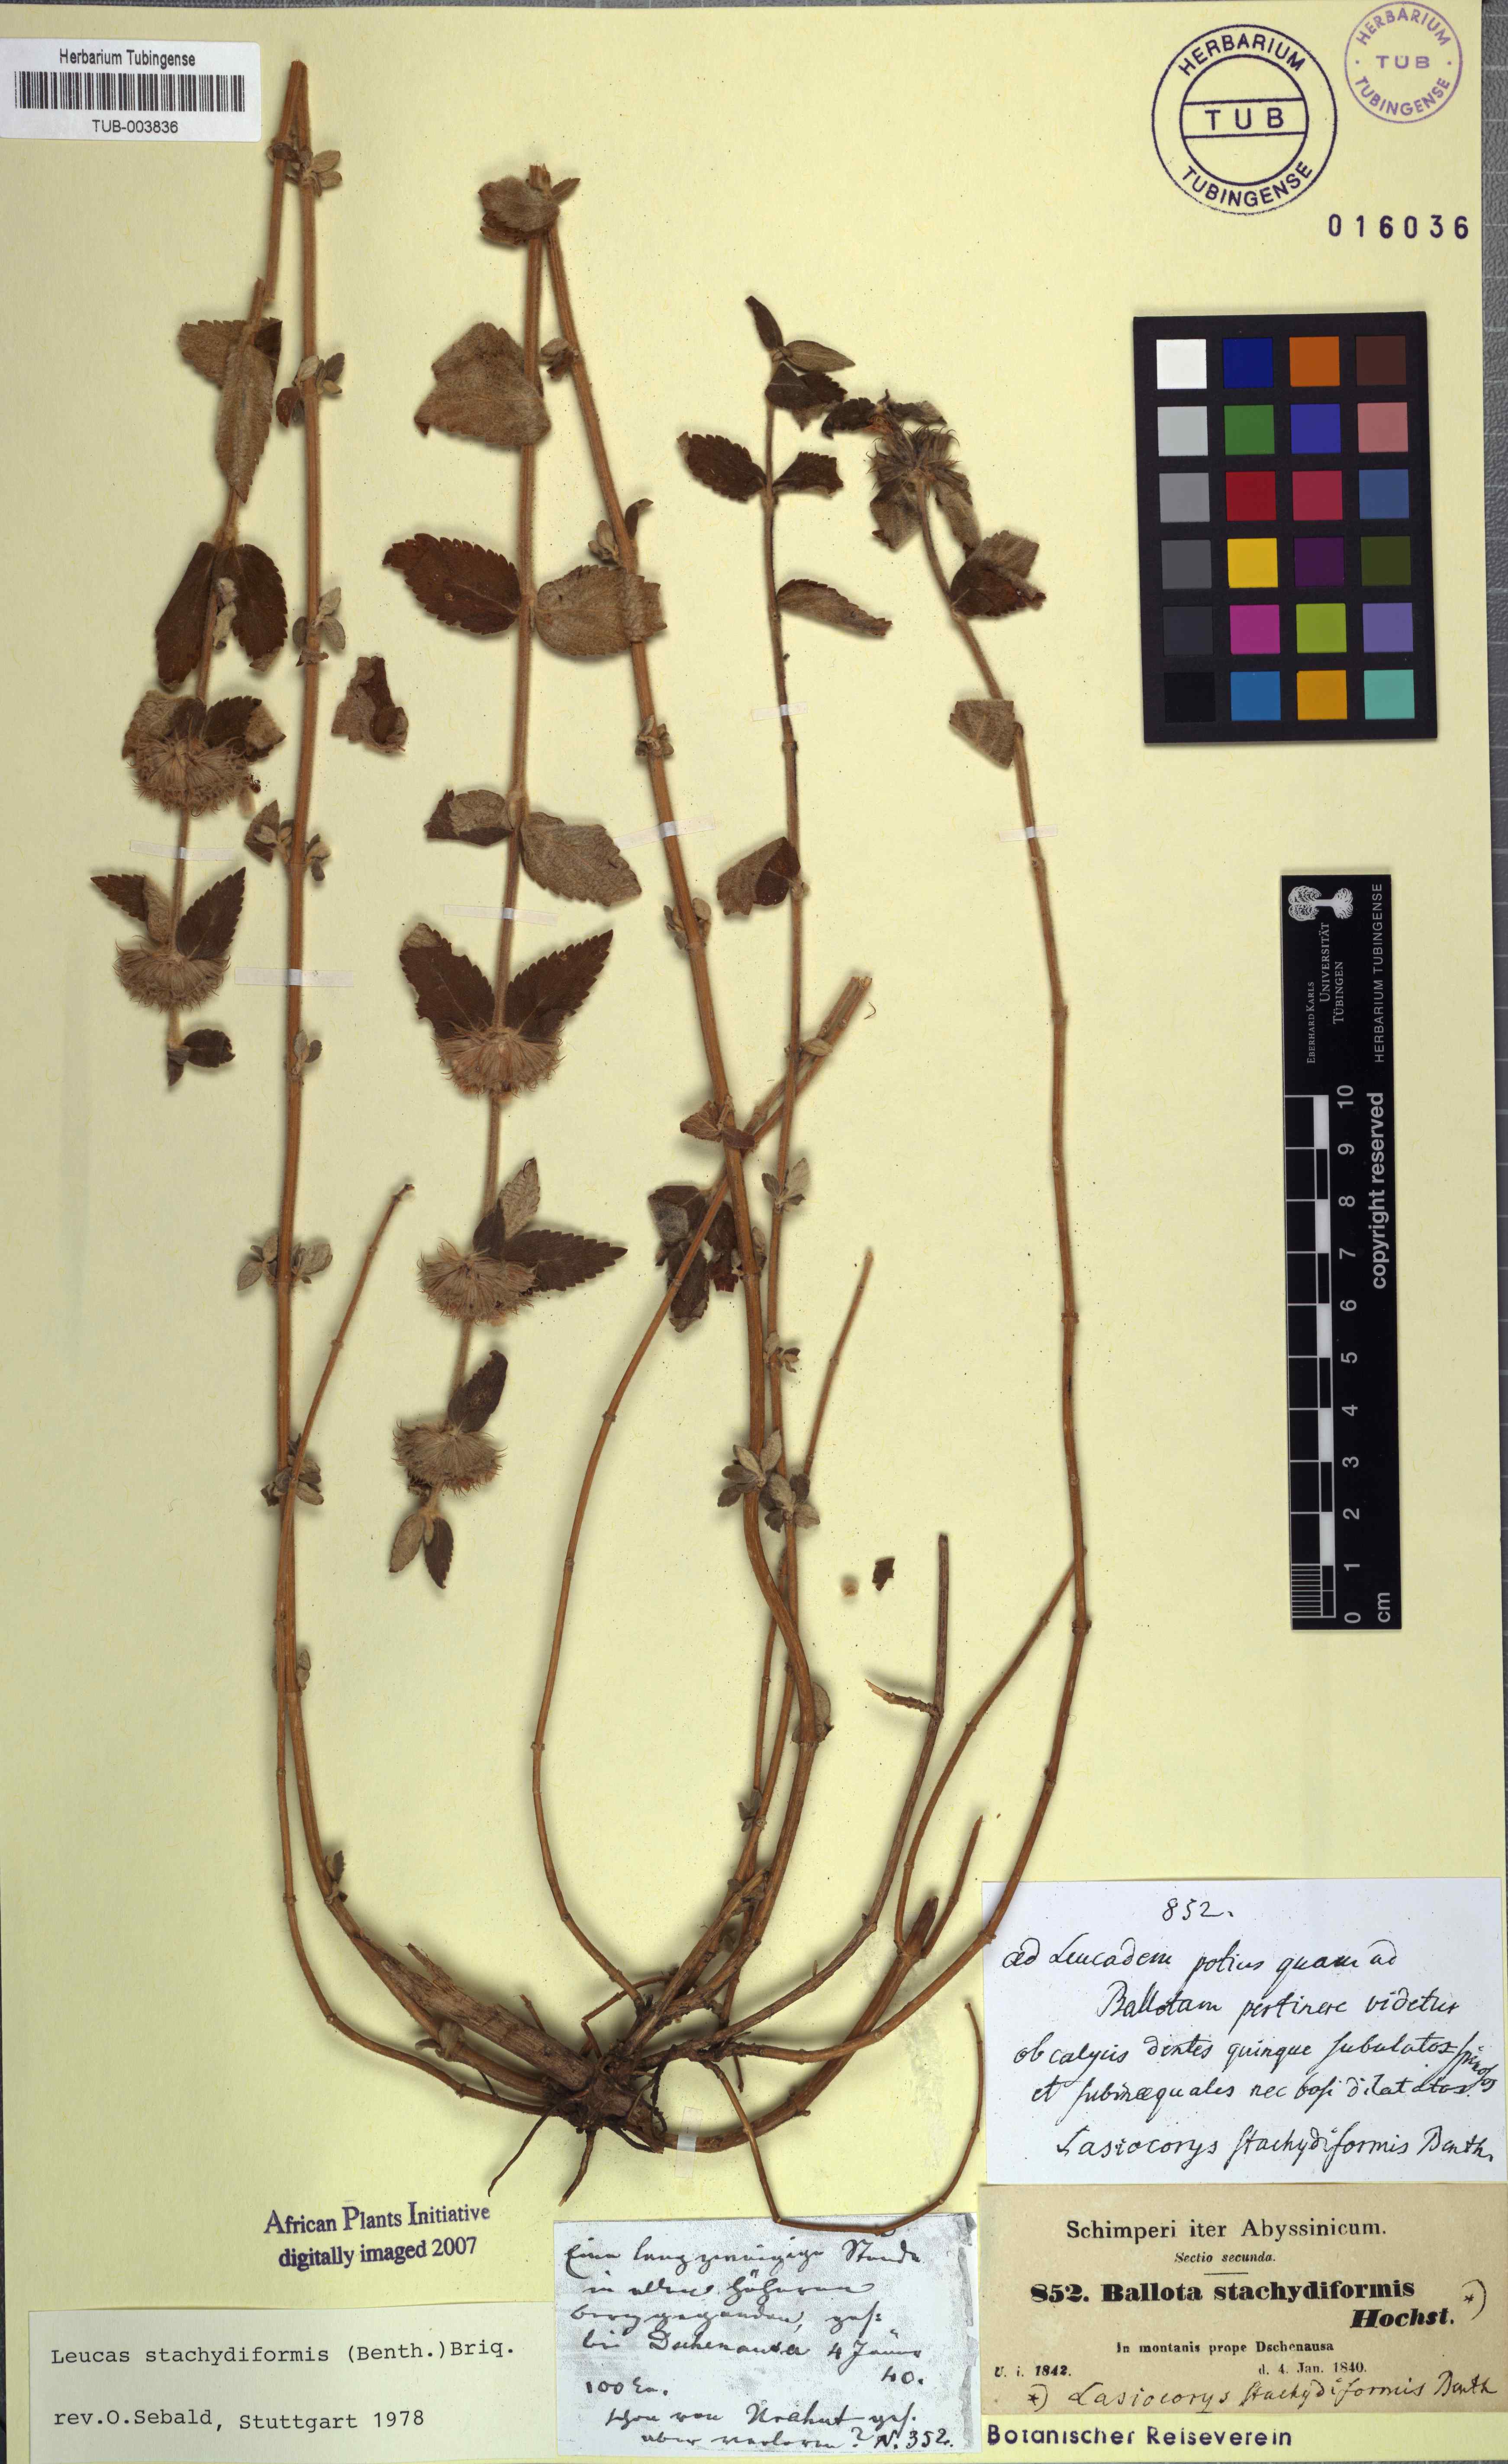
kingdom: Plantae
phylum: Tracheophyta
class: Magnoliopsida
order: Lamiales
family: Lamiaceae
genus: Leucas
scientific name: Leucas stachydiformis
